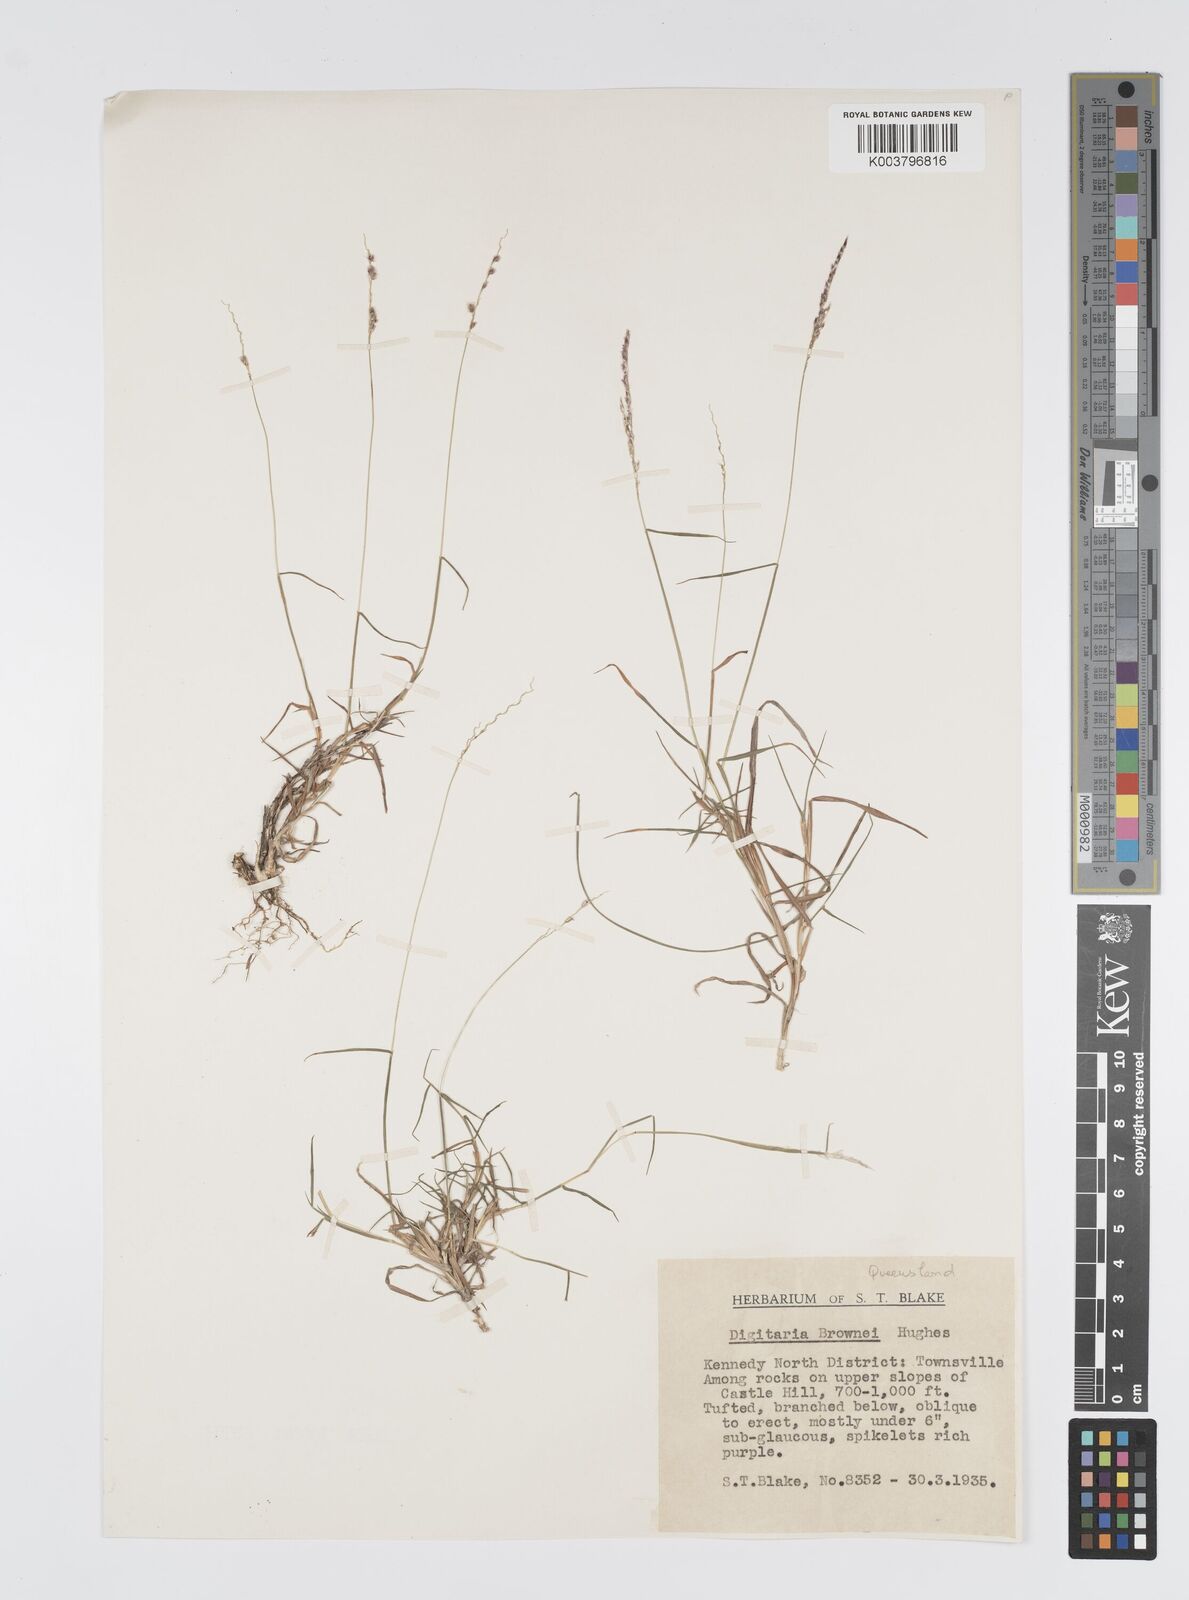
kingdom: Plantae
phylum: Tracheophyta
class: Liliopsida
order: Poales
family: Poaceae
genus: Digitaria
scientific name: Digitaria brownii
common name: Cotton grass
